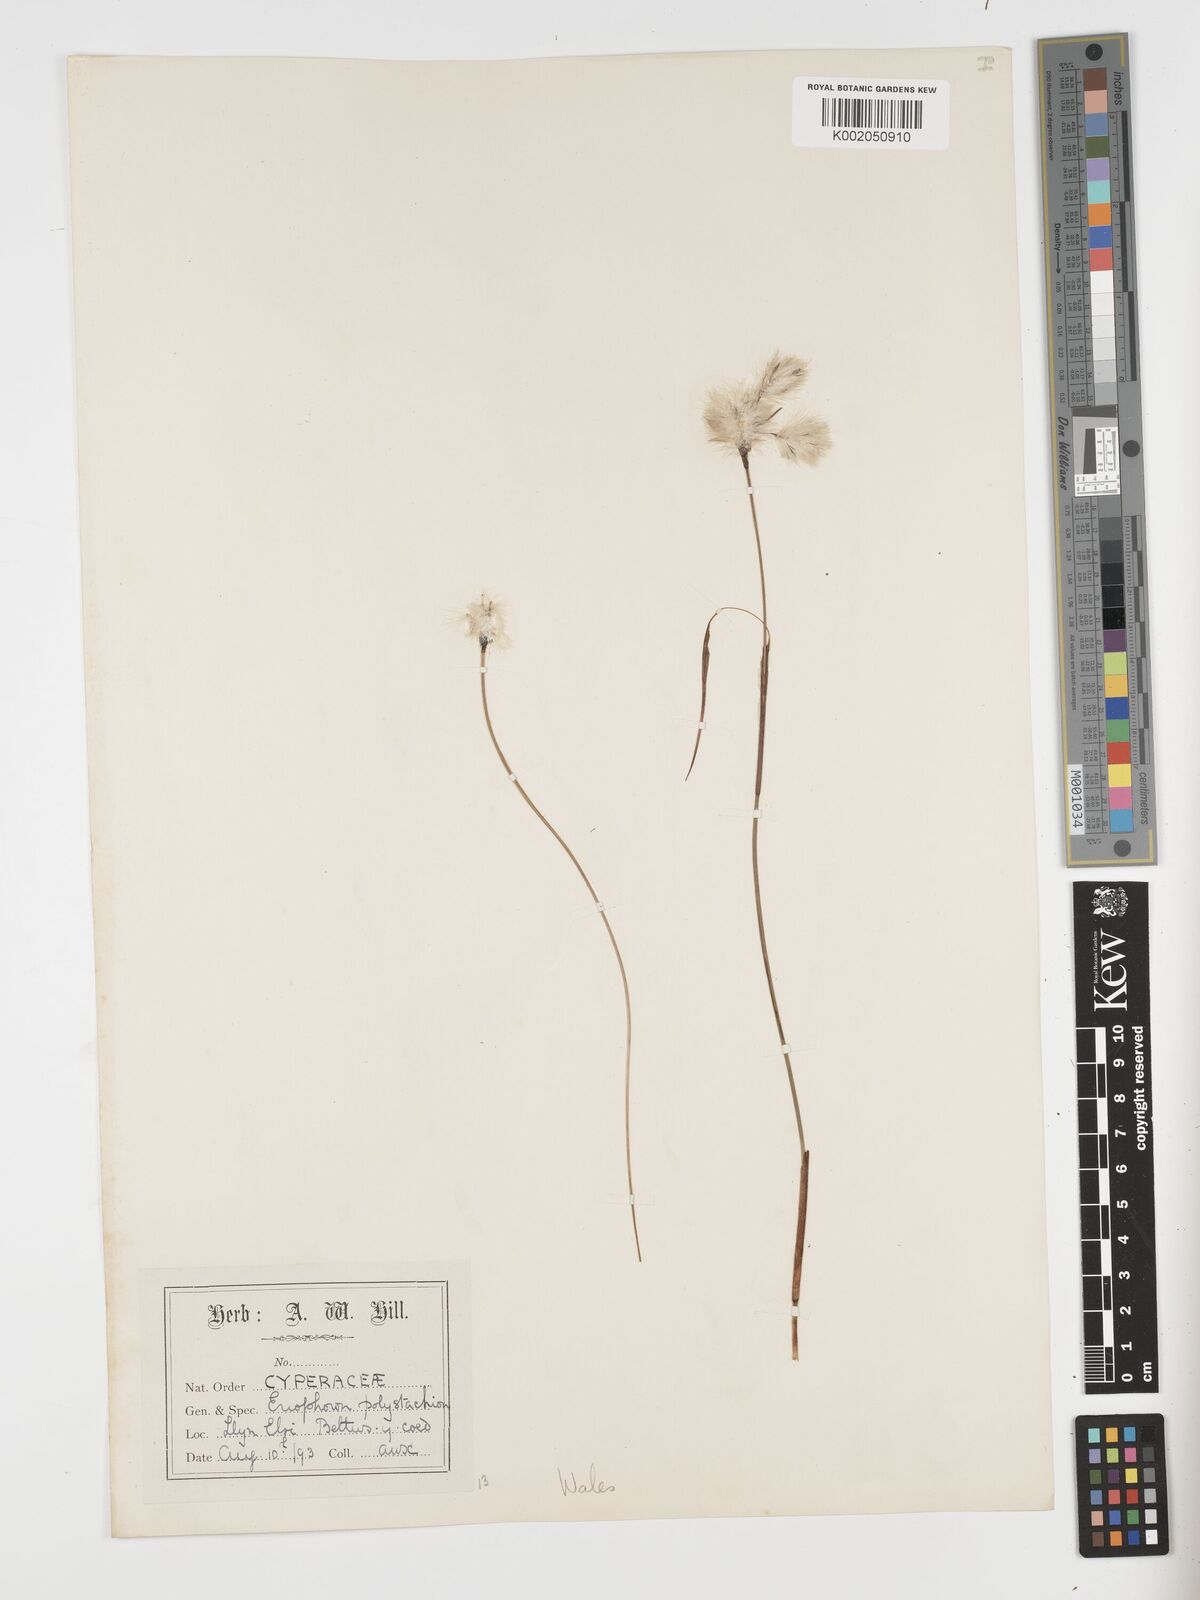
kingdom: Plantae
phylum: Tracheophyta
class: Liliopsida
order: Poales
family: Cyperaceae
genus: Eriophorum
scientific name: Eriophorum angustifolium
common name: Common cottongrass
